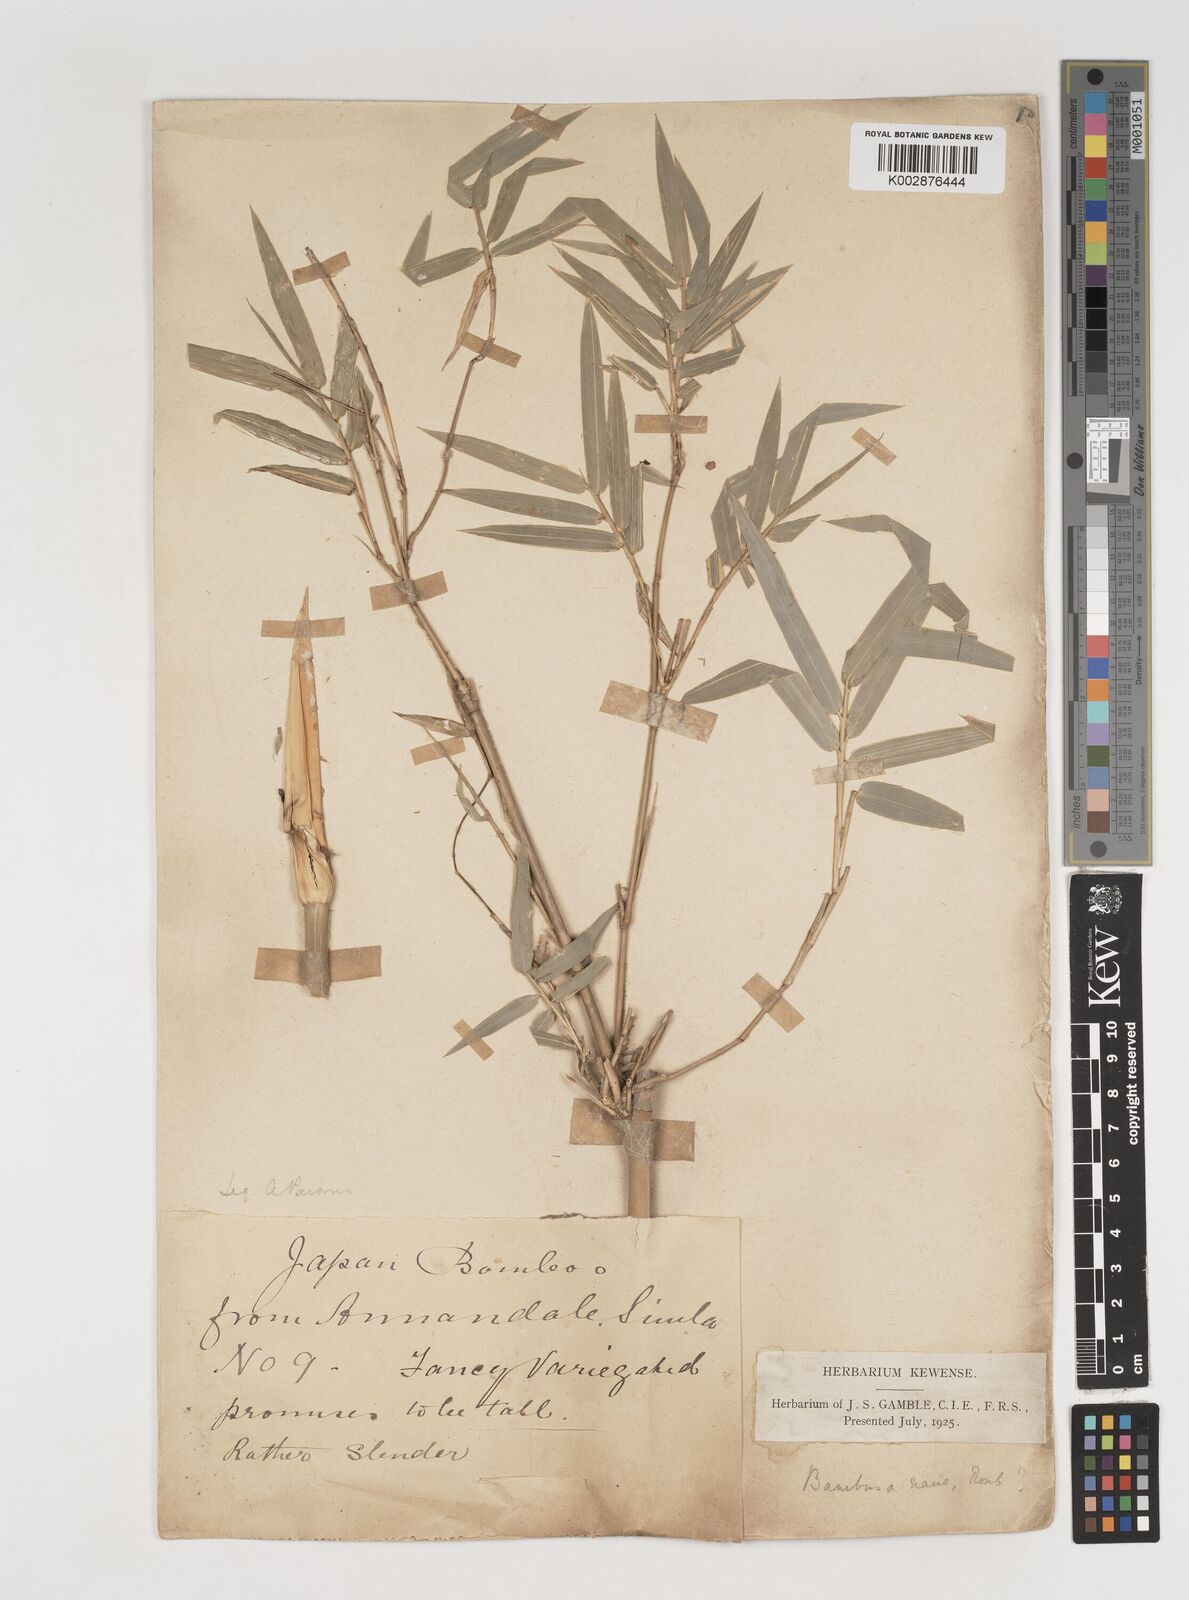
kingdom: Plantae
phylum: Tracheophyta
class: Liliopsida
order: Poales
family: Poaceae
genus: Bambusa
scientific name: Bambusa multiplex
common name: Hedge bamboo
